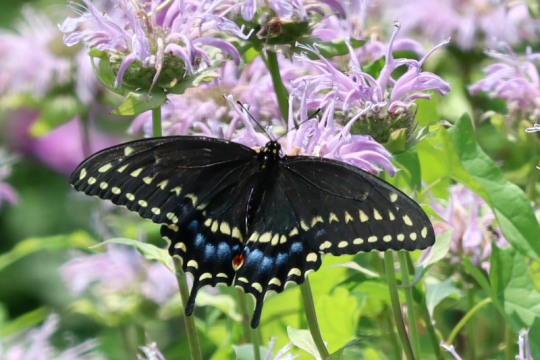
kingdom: Animalia
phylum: Arthropoda
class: Insecta
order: Lepidoptera
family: Papilionidae
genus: Papilio
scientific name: Papilio polyxenes
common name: Black Swallowtail
